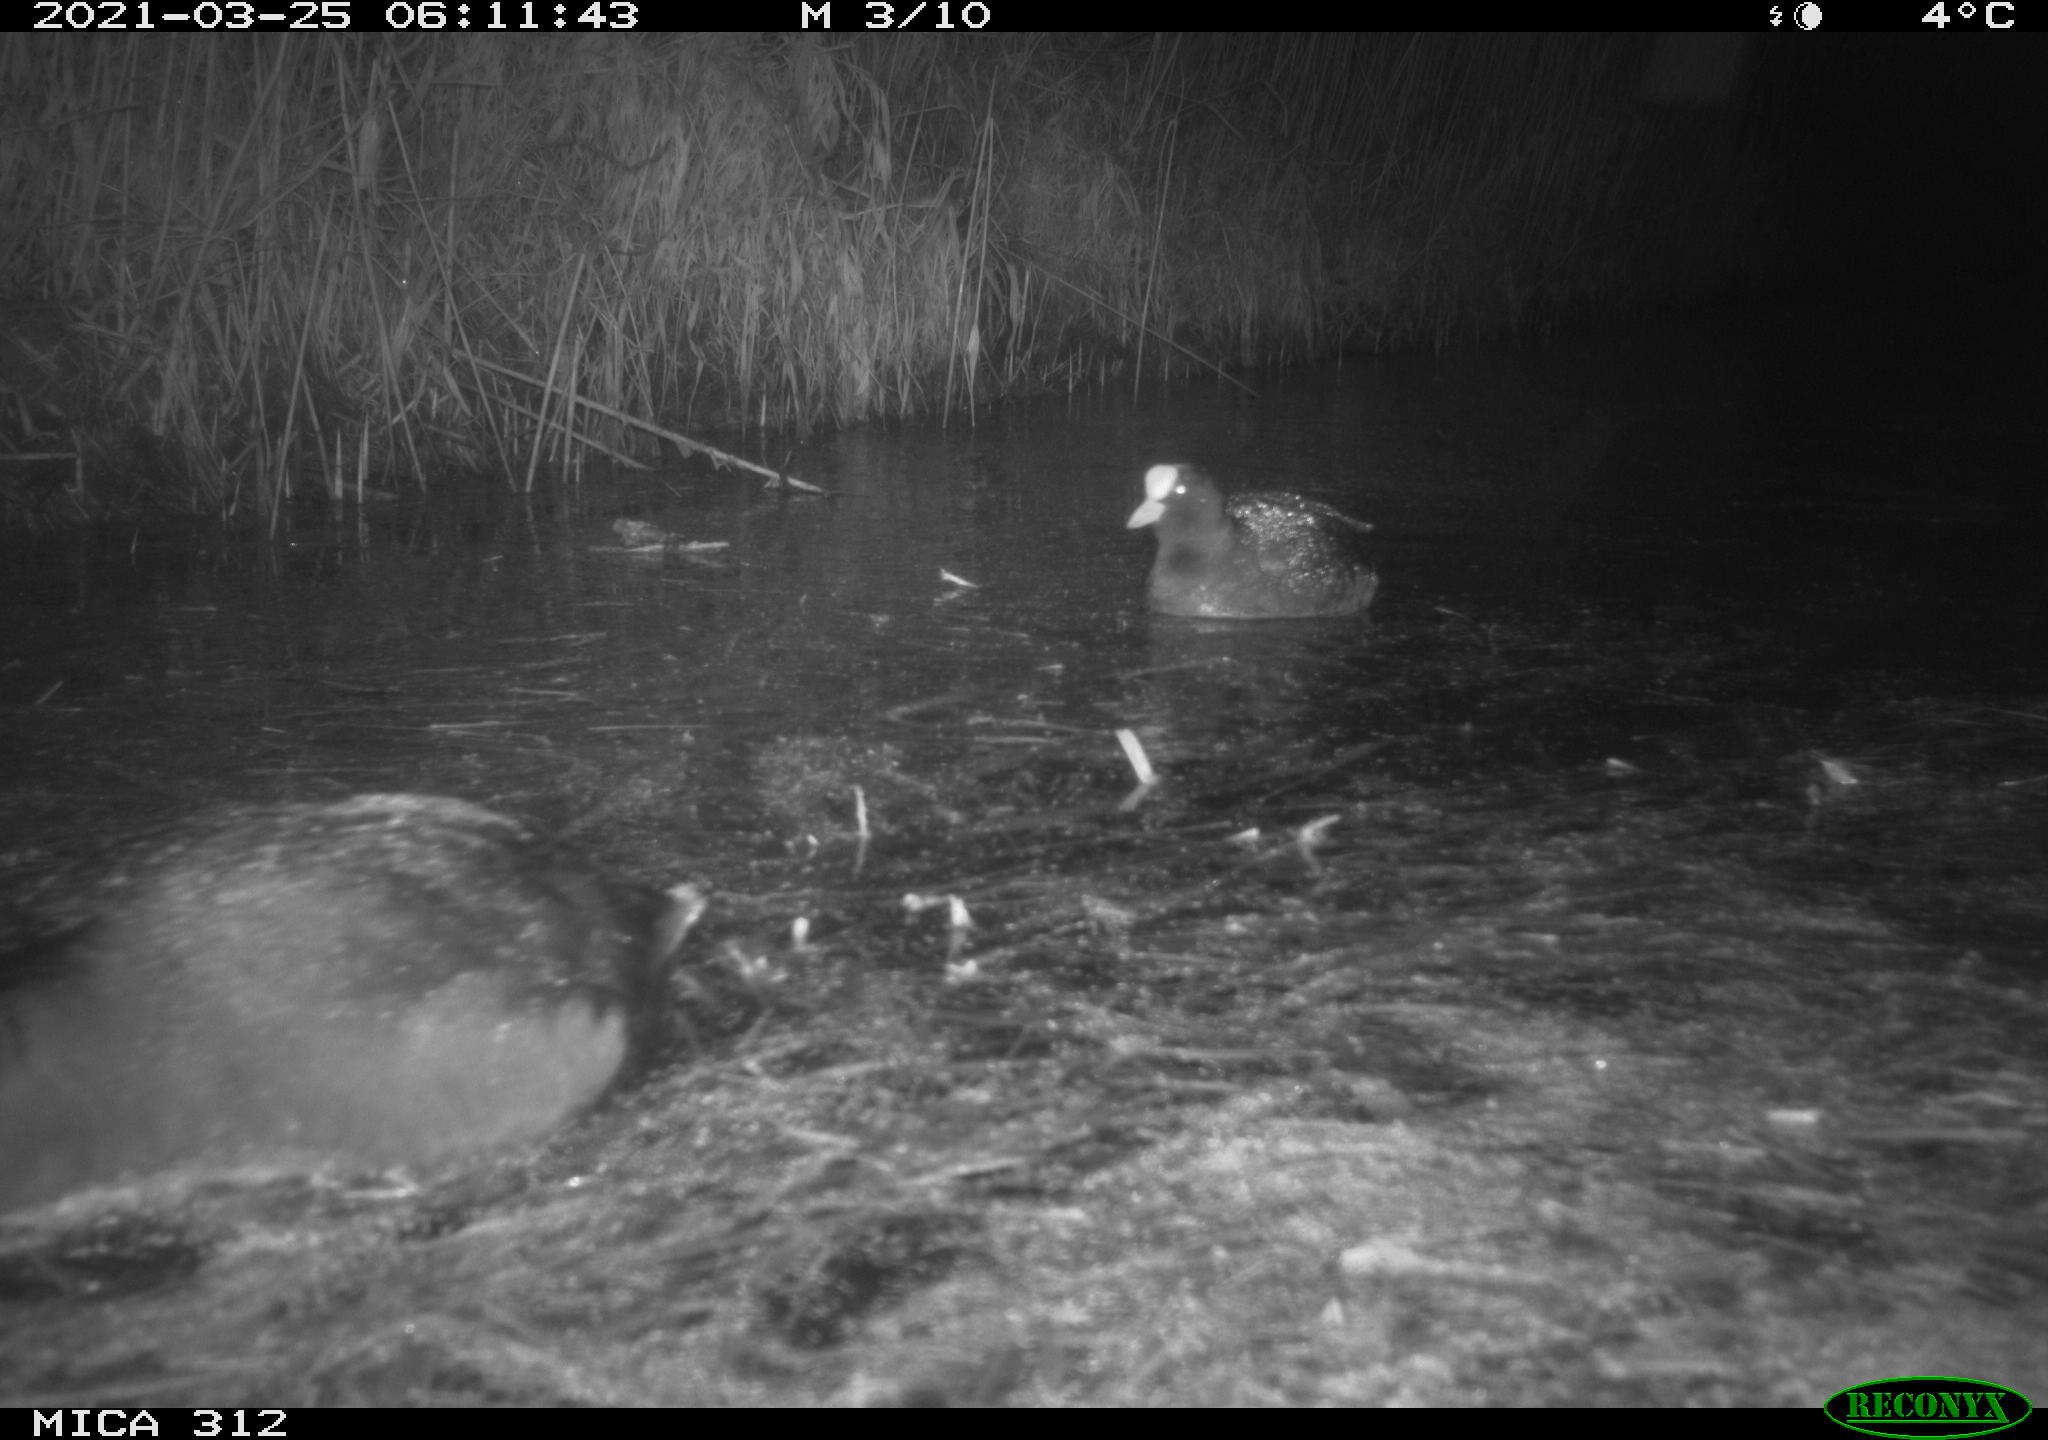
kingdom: Animalia
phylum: Chordata
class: Aves
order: Gruiformes
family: Rallidae
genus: Fulica
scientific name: Fulica atra
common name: Eurasian coot
